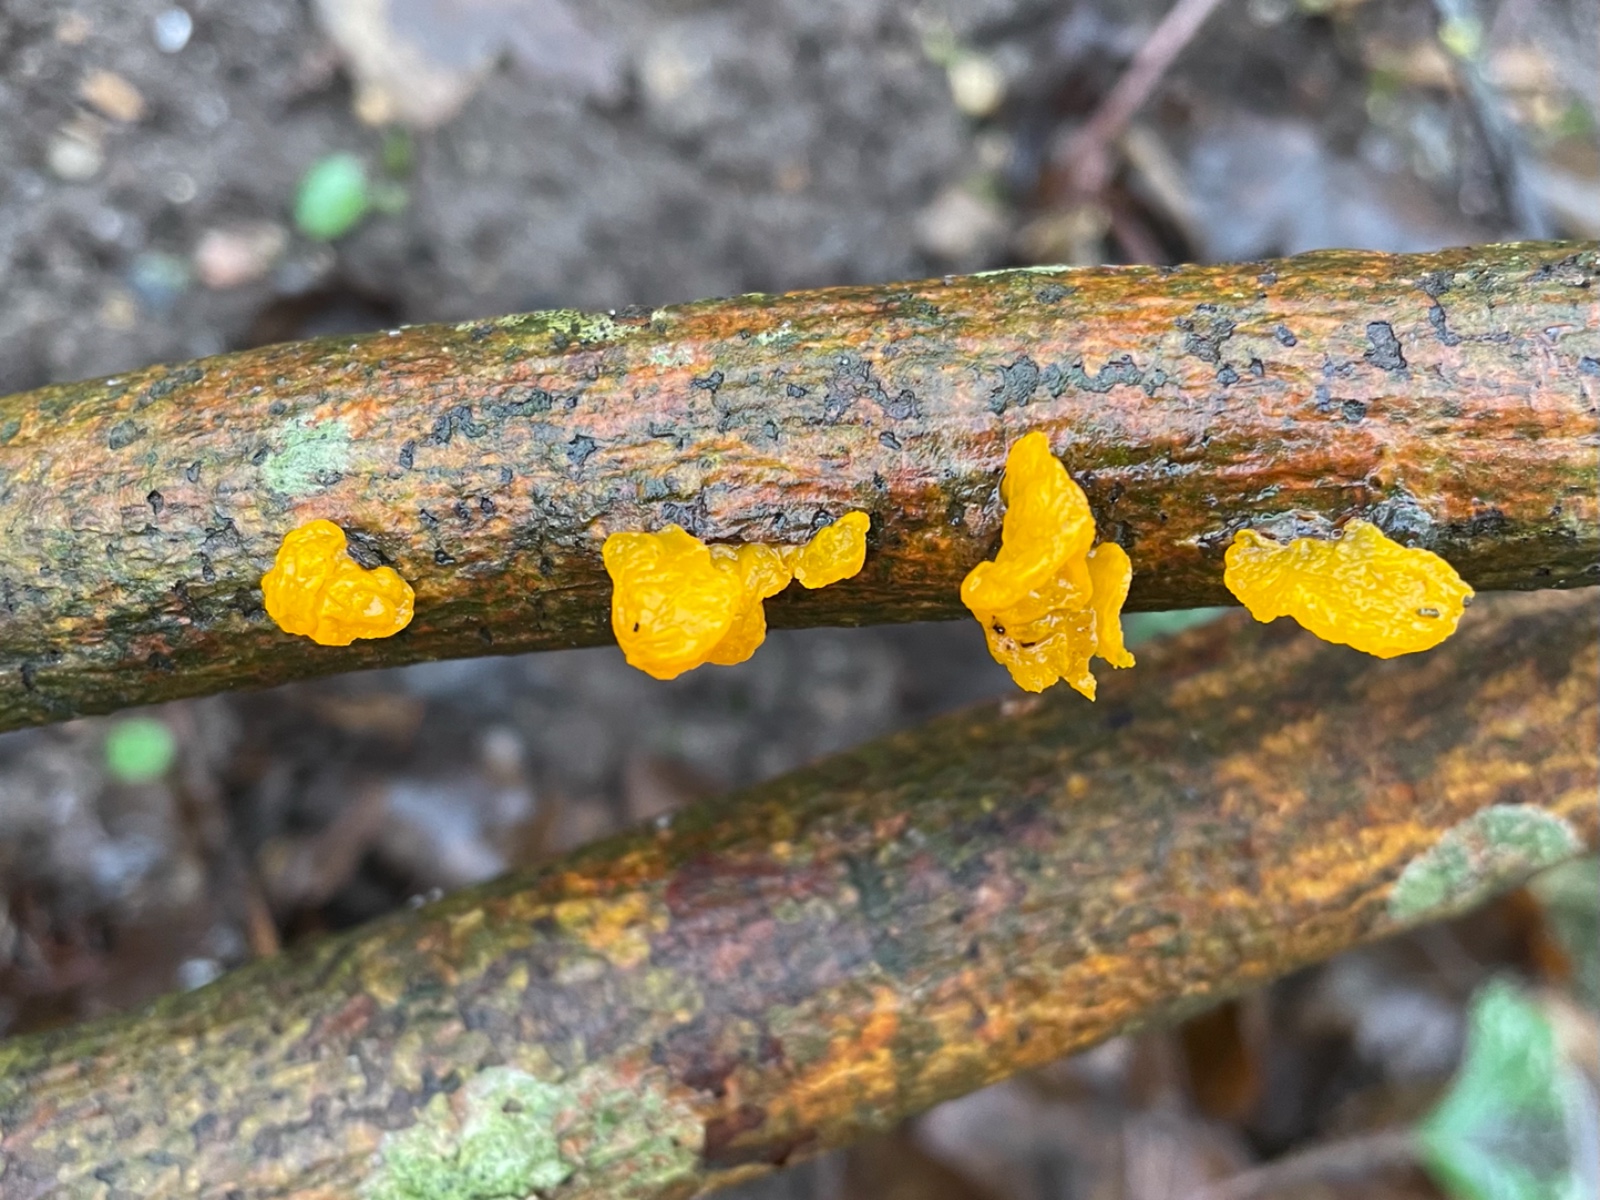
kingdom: Fungi
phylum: Basidiomycota
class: Tremellomycetes
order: Tremellales
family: Tremellaceae
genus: Tremella
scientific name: Tremella mesenterica
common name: gul bævresvamp
